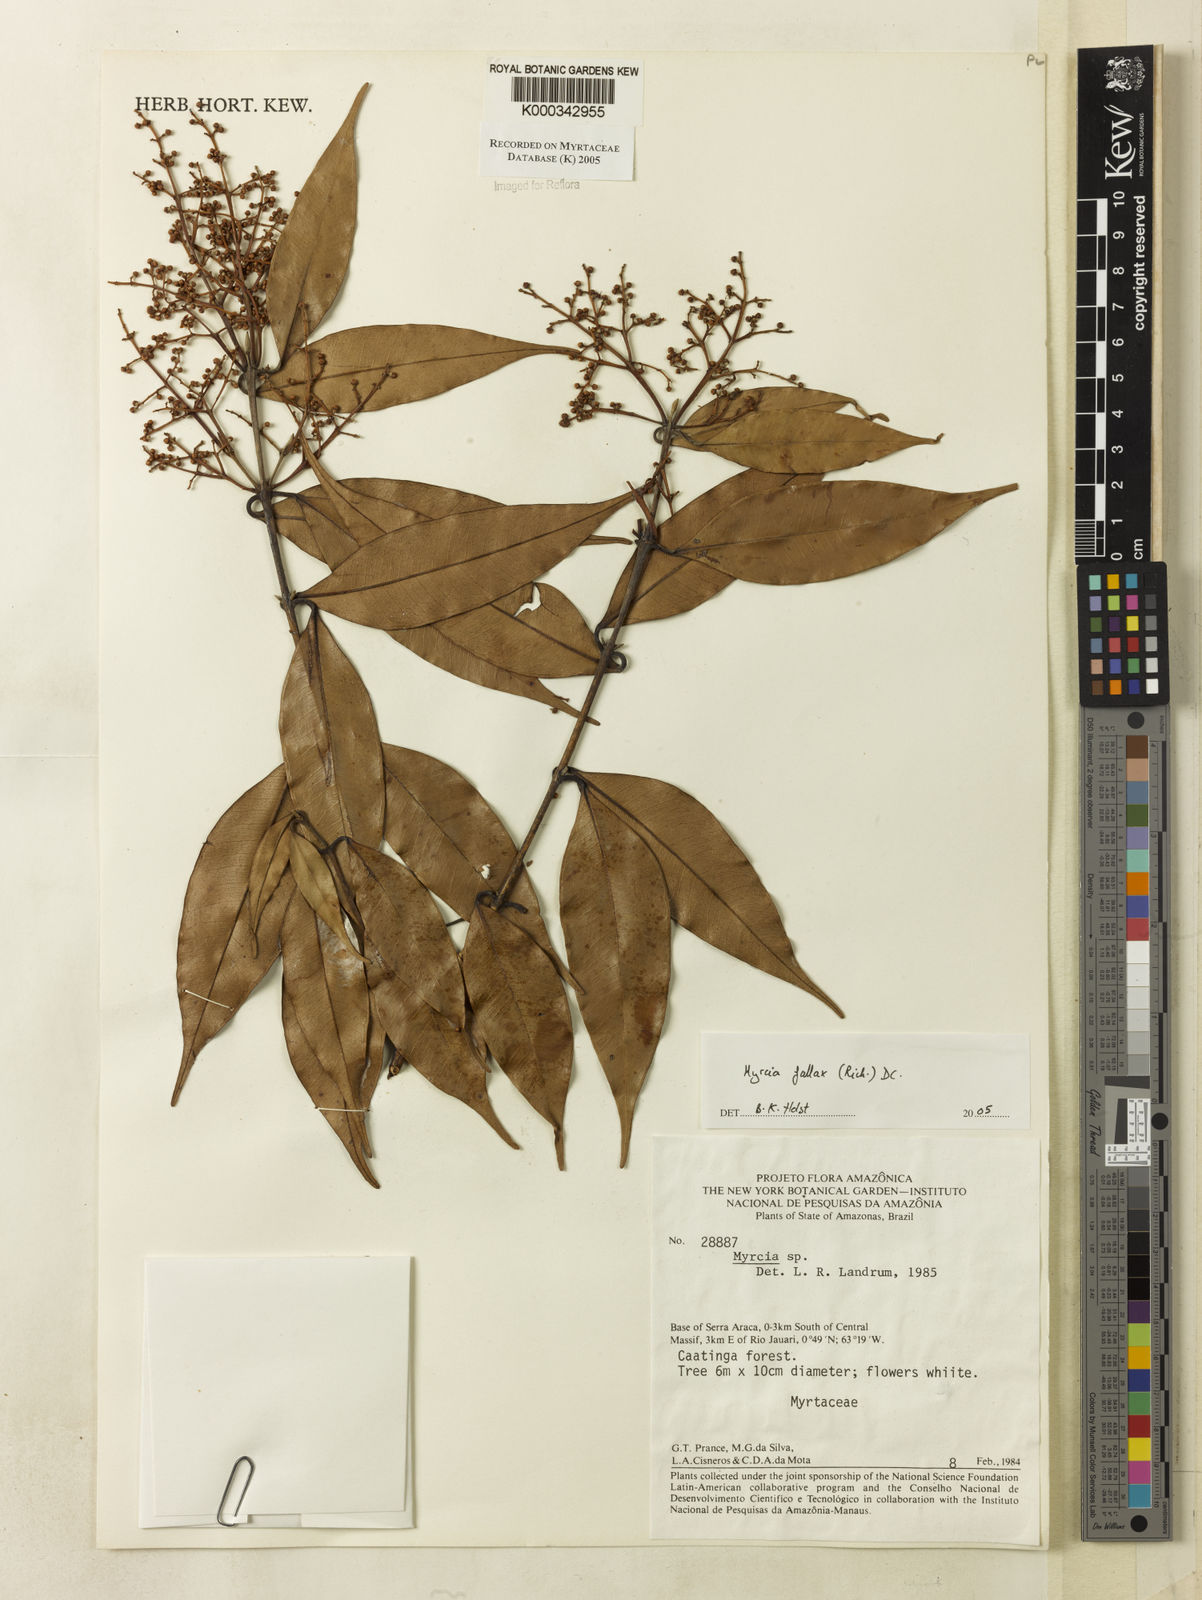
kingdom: Plantae
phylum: Tracheophyta
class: Magnoliopsida
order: Myrtales
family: Myrtaceae
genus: Myrcia
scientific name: Myrcia splendens
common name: Surinam cherry
